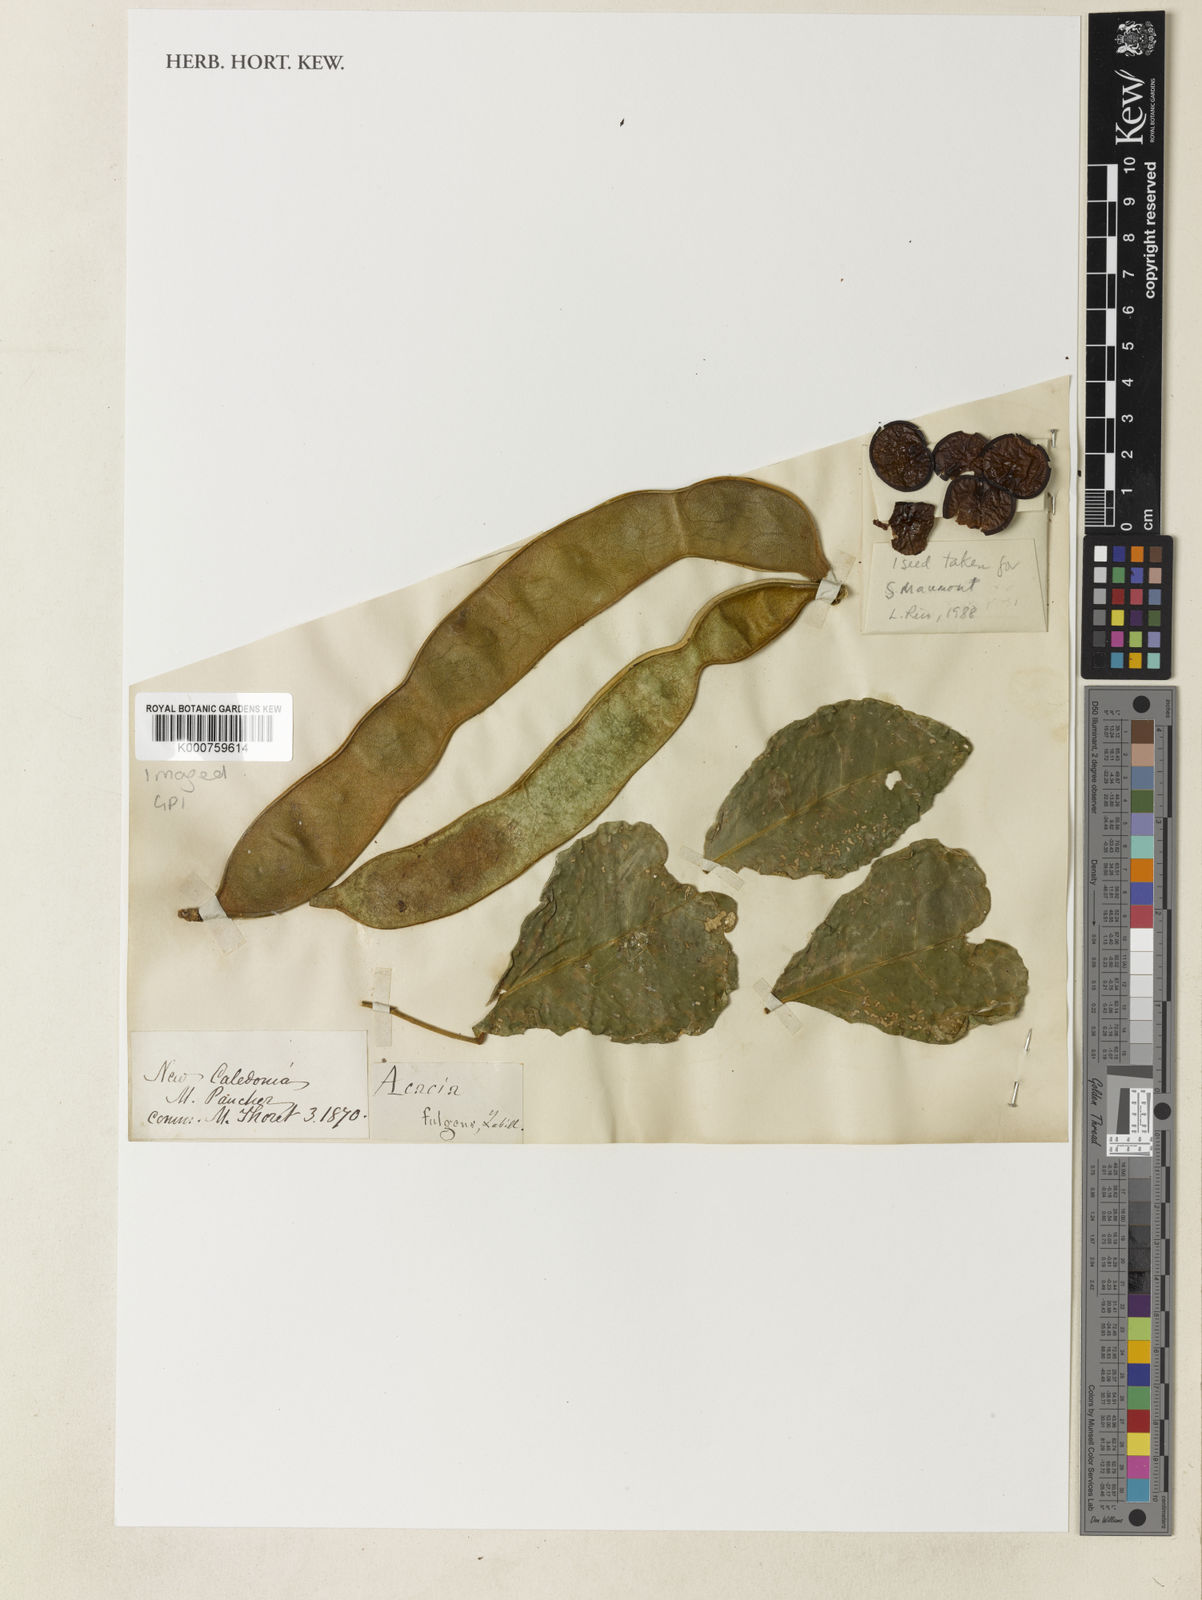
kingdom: Plantae
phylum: Tracheophyta
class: Magnoliopsida
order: Fabales
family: Fabaceae
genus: Archidendropsis
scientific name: Archidendropsis streptocarpa
